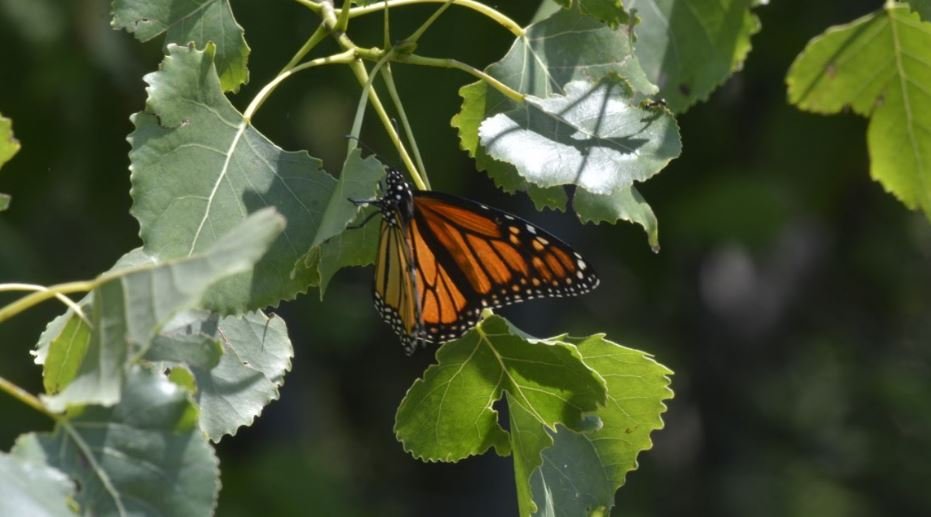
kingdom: Animalia
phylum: Arthropoda
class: Insecta
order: Lepidoptera
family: Nymphalidae
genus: Danaus
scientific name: Danaus plexippus
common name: Monarch
